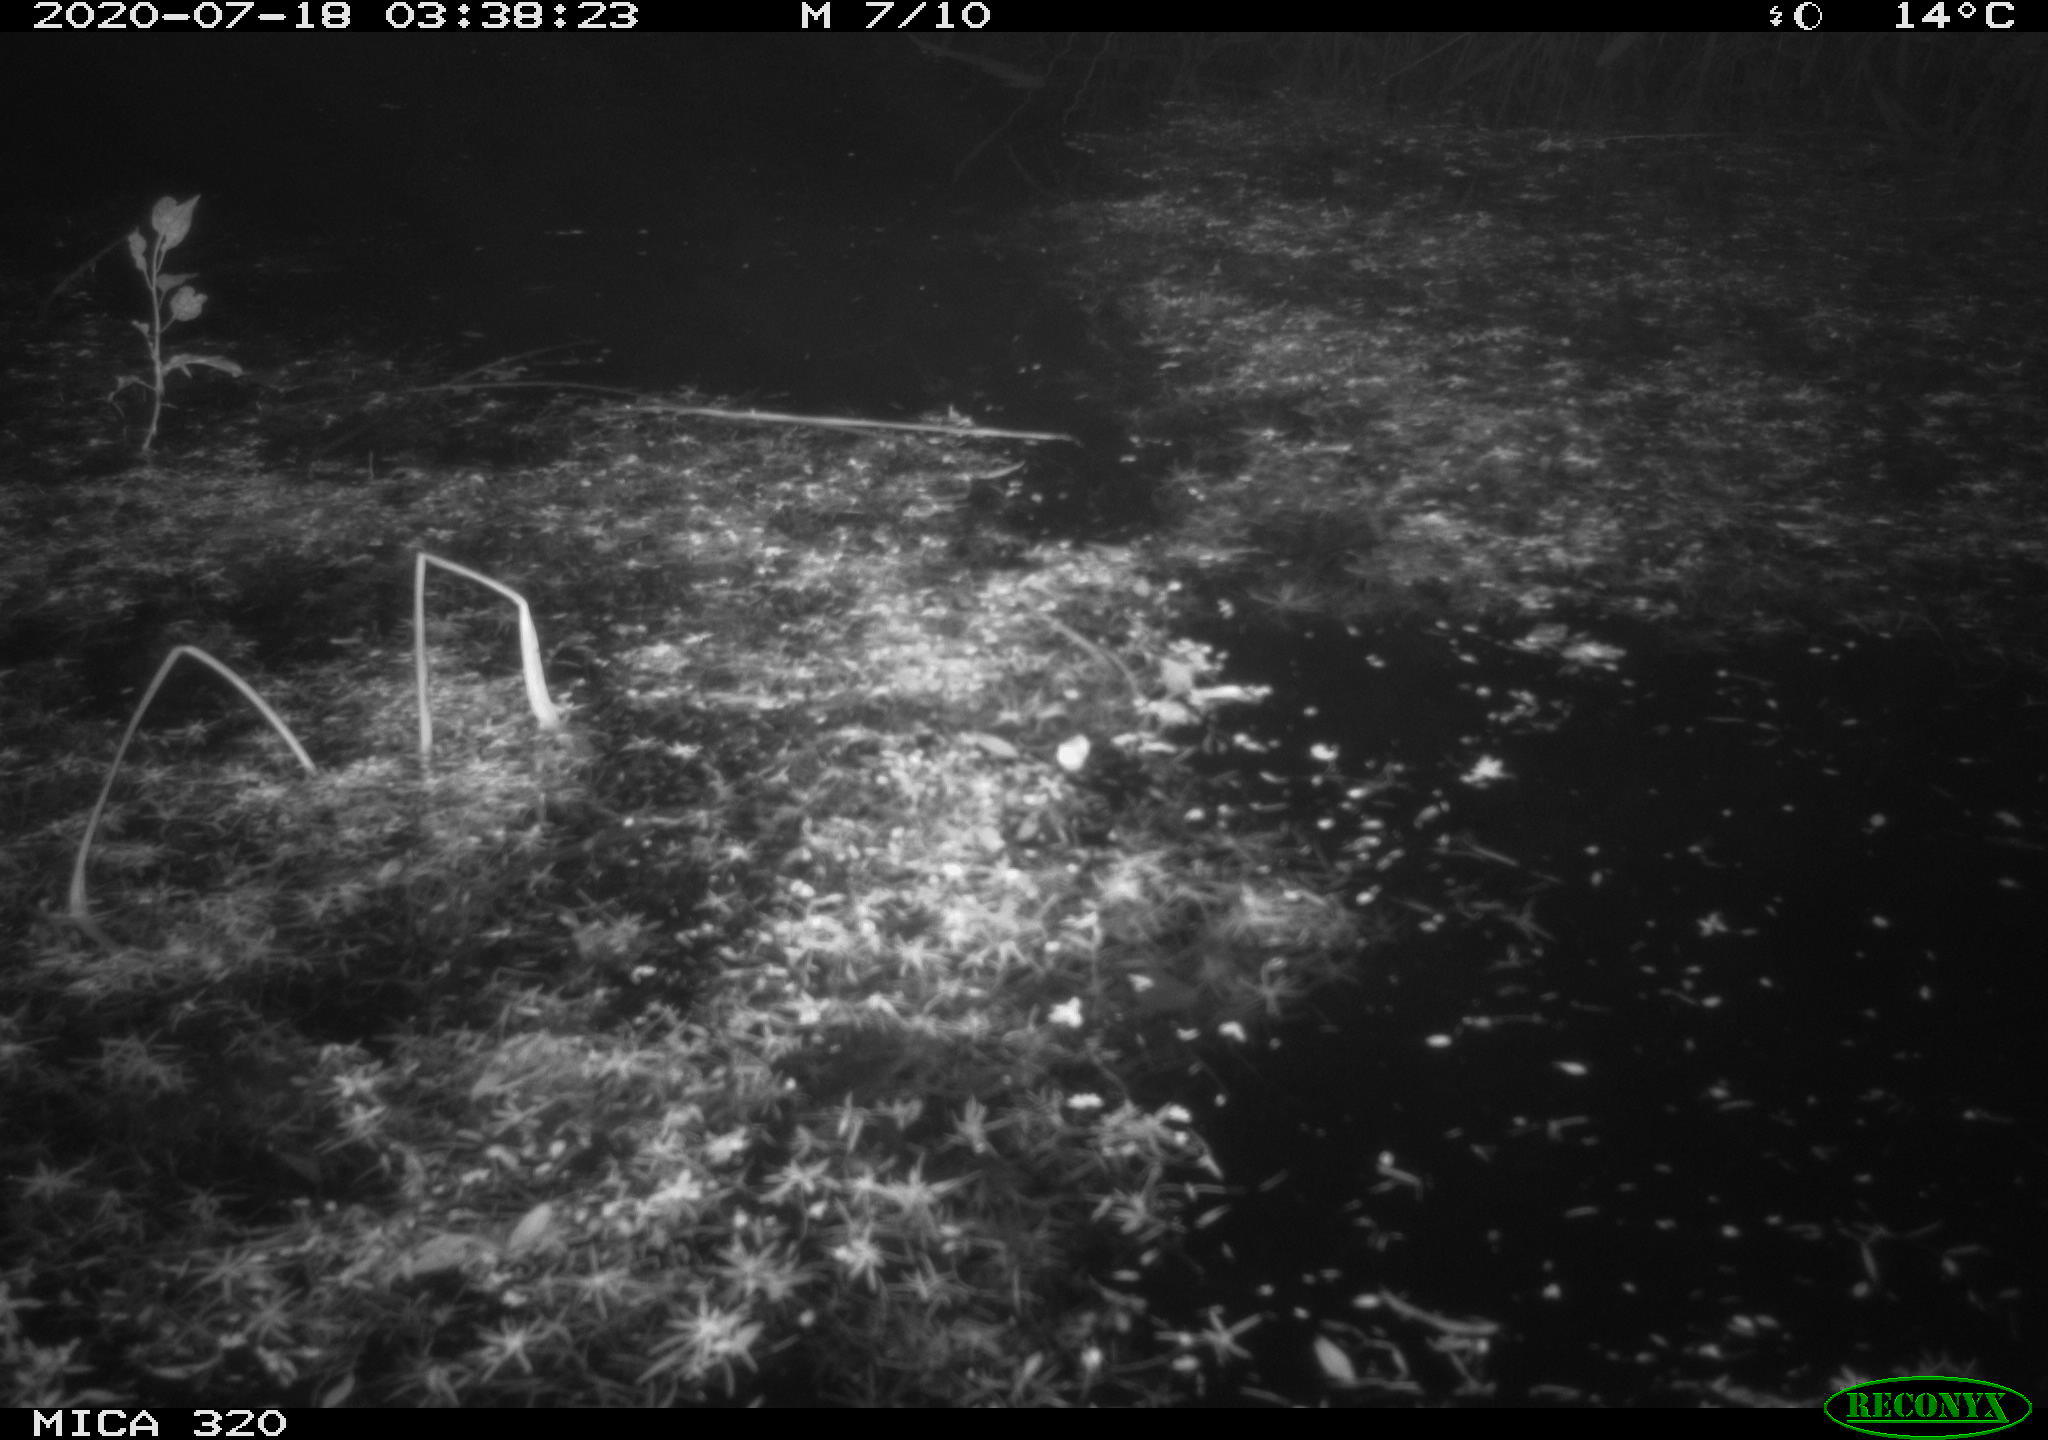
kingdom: Animalia
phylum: Chordata
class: Aves
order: Anseriformes
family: Anatidae
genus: Anas
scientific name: Anas platyrhynchos
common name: Mallard
